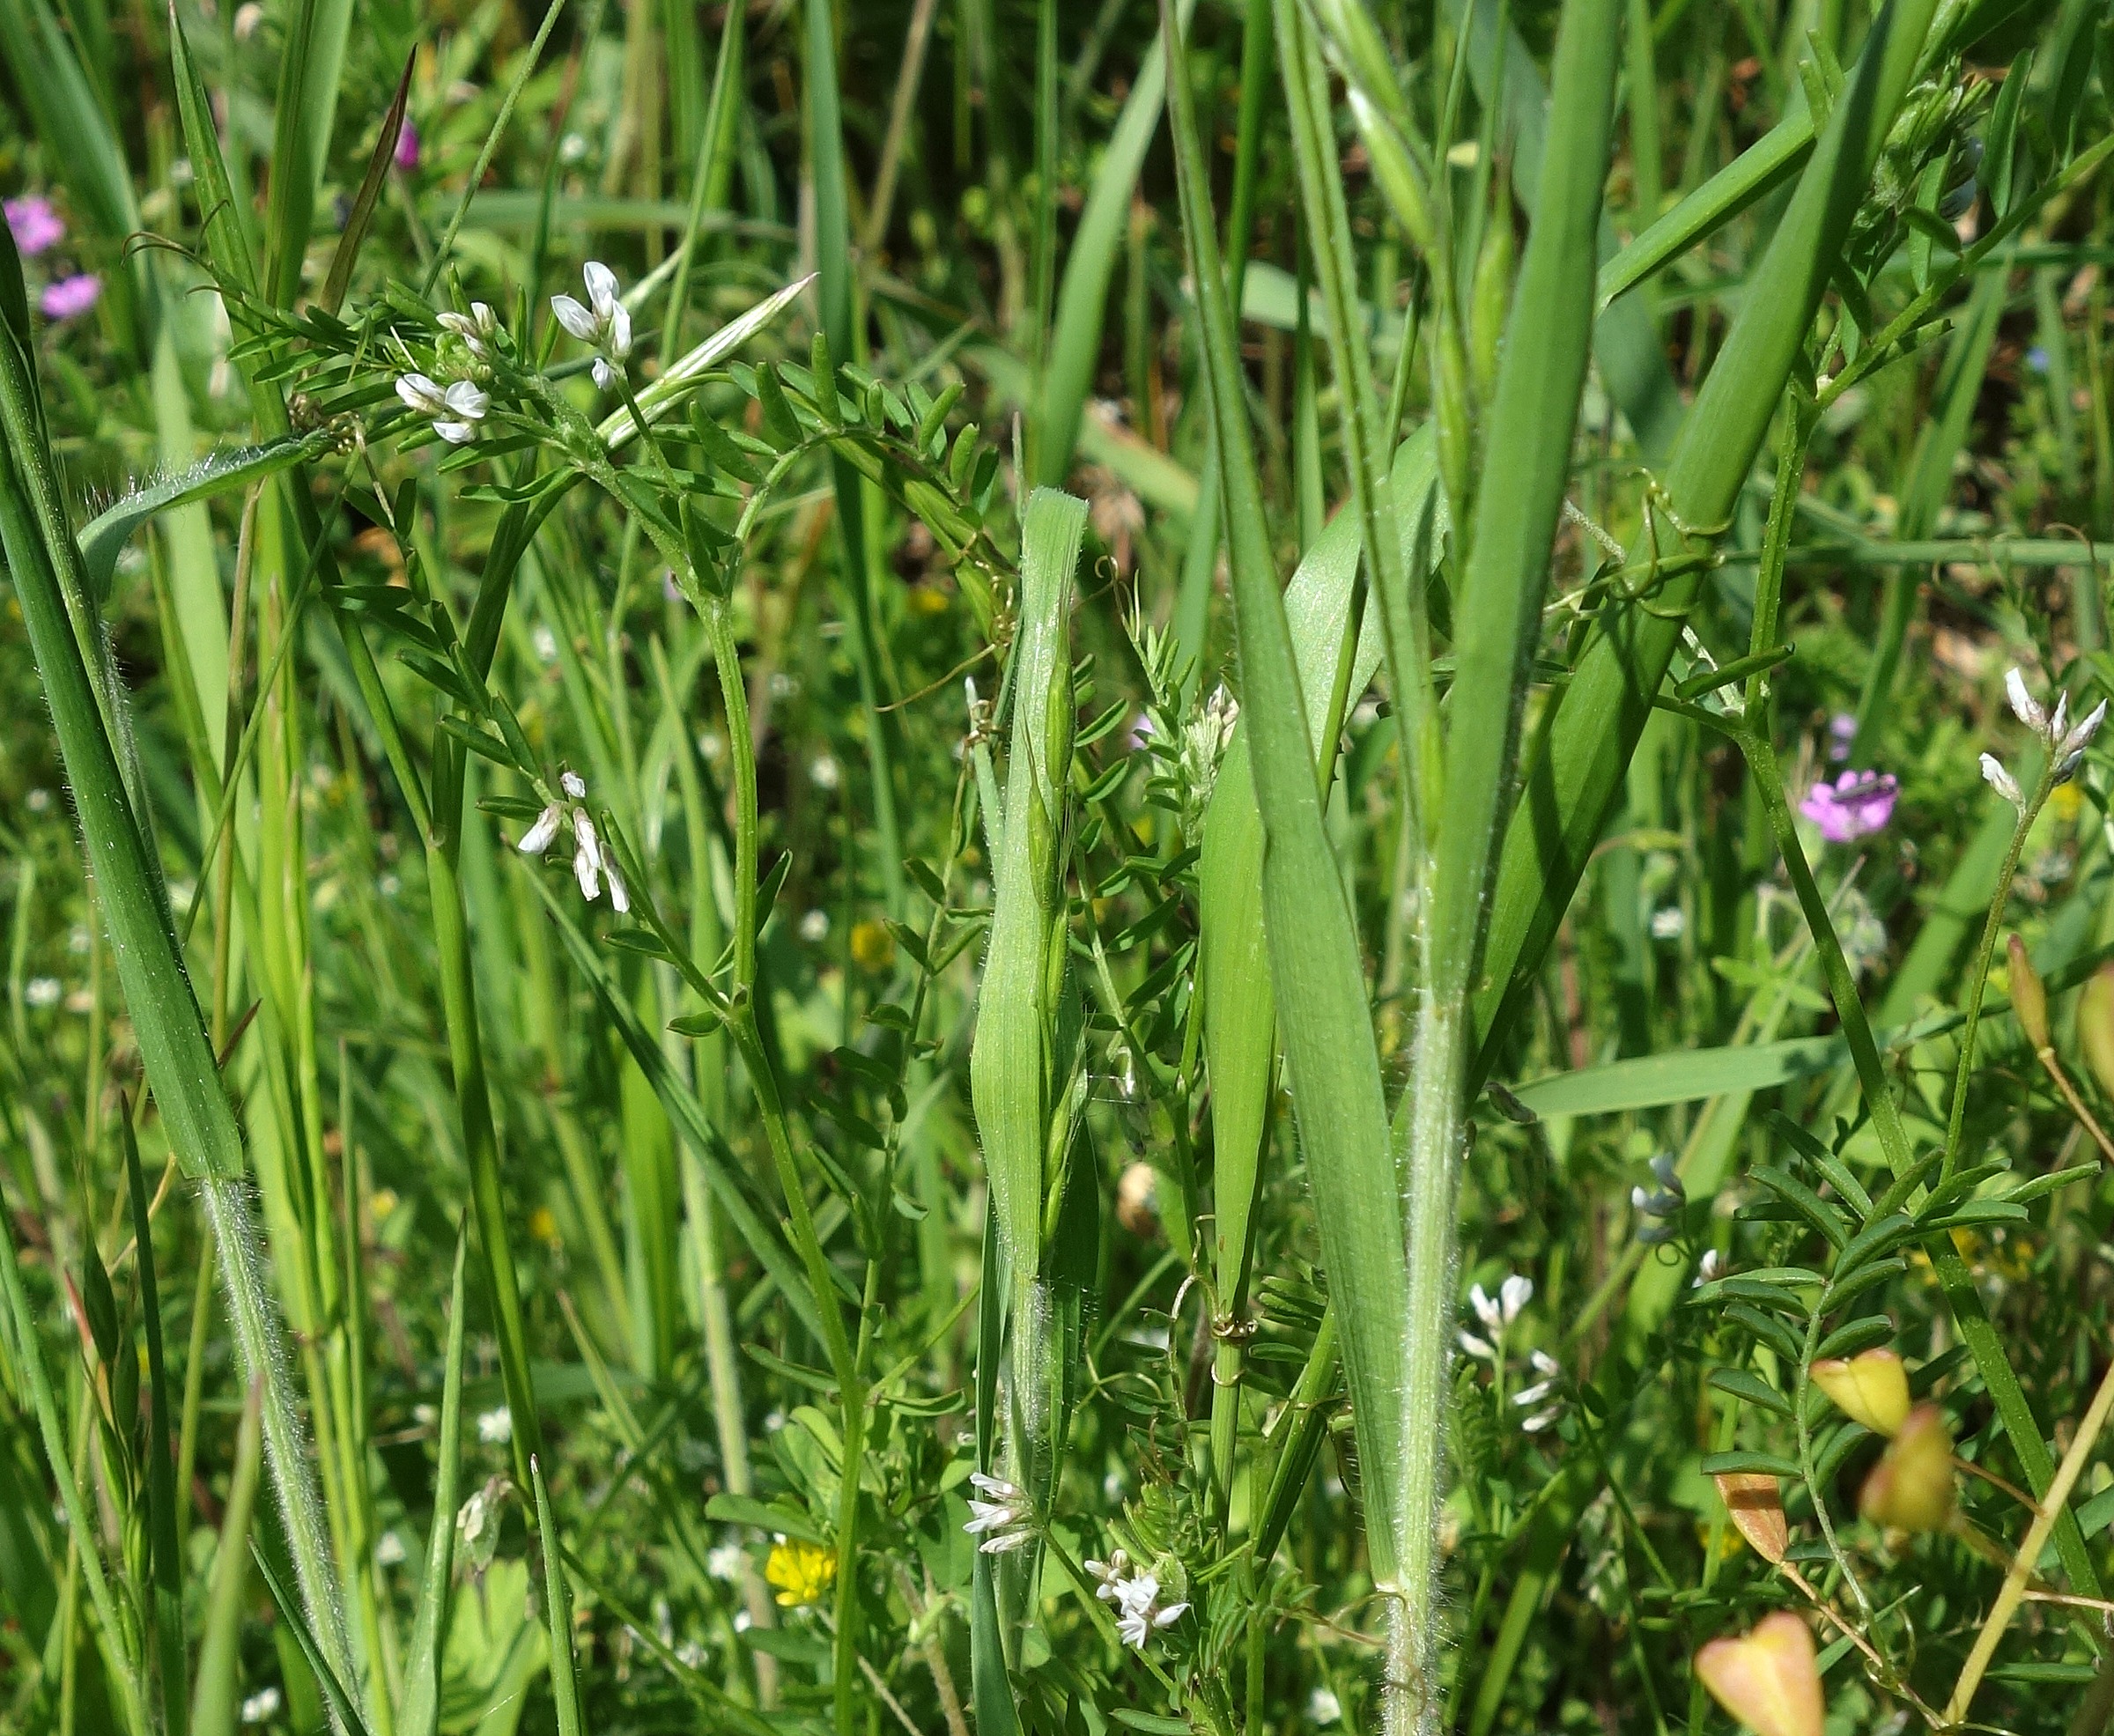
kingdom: Plantae
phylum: Tracheophyta
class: Magnoliopsida
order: Fabales
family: Fabaceae
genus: Vicia
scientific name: Vicia hirsuta
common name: Tofrøet vikke
